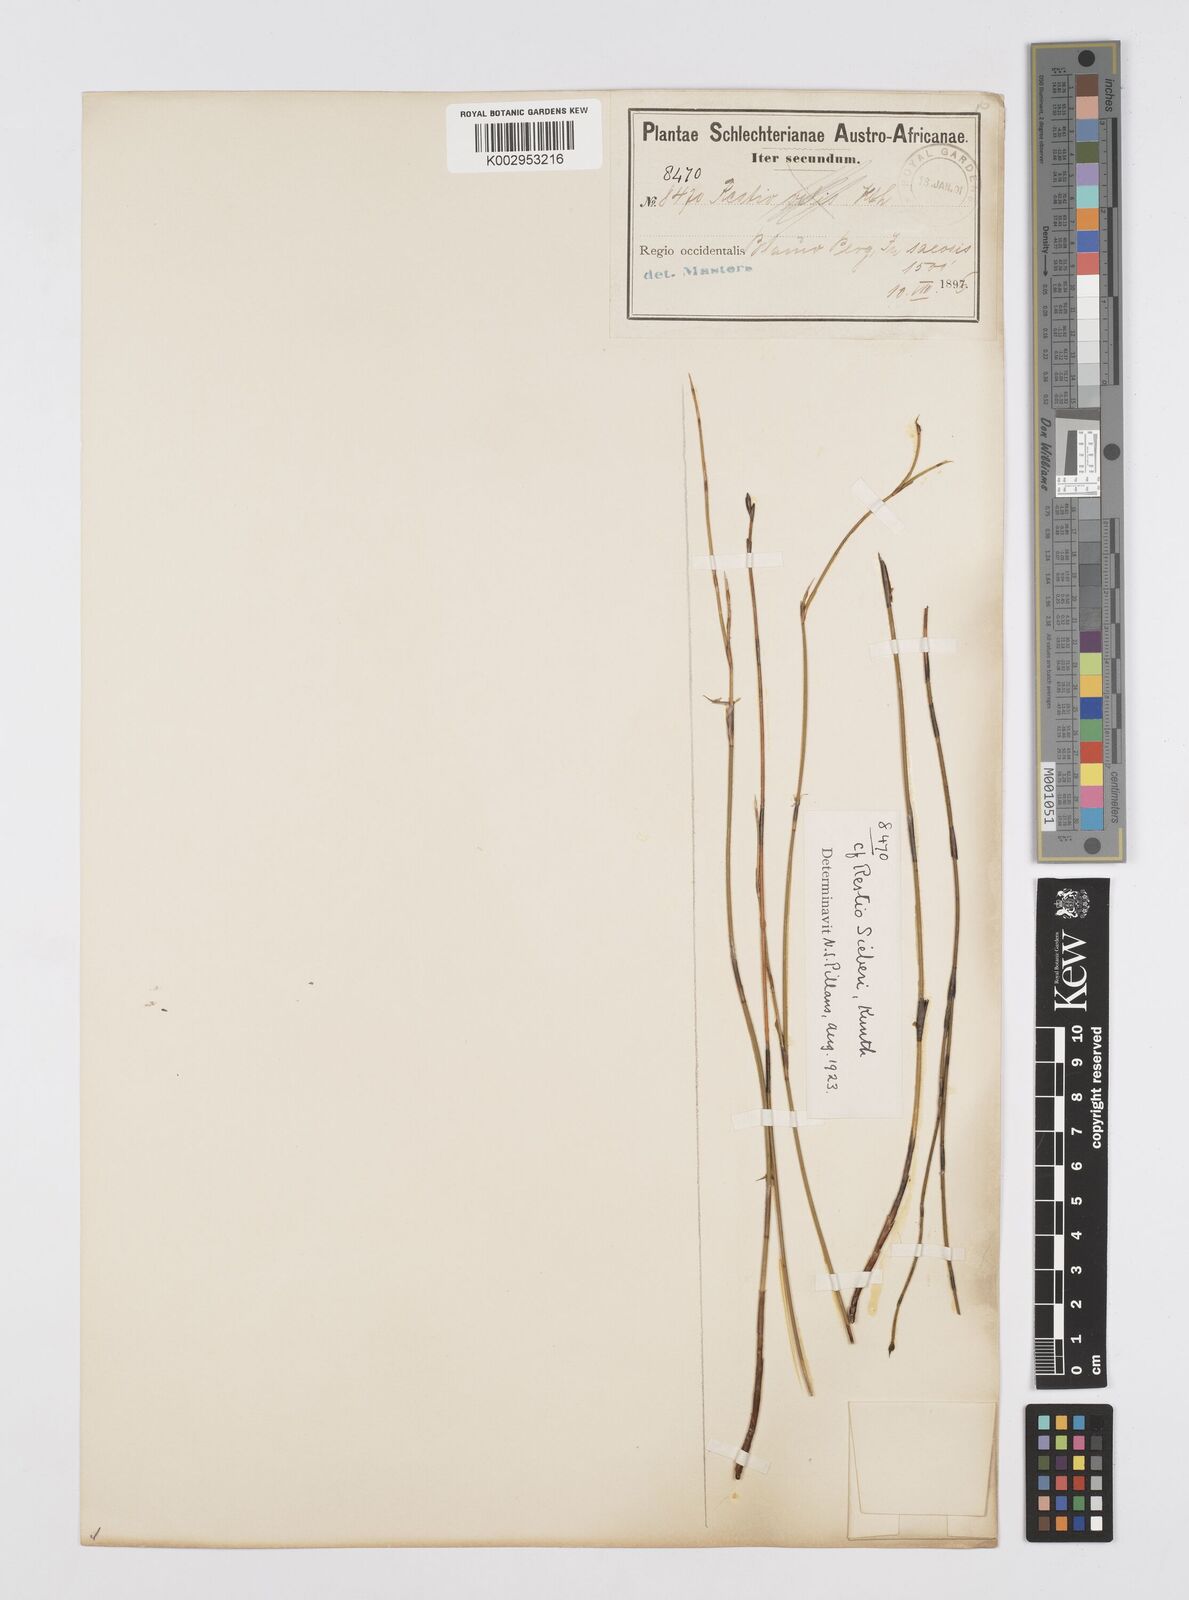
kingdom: Plantae
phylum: Tracheophyta
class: Liliopsida
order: Poales
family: Restionaceae
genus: Restio
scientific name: Restio
